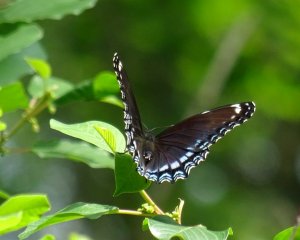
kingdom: Animalia
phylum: Arthropoda
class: Insecta
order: Lepidoptera
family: Nymphalidae
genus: Limenitis
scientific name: Limenitis astyanax
